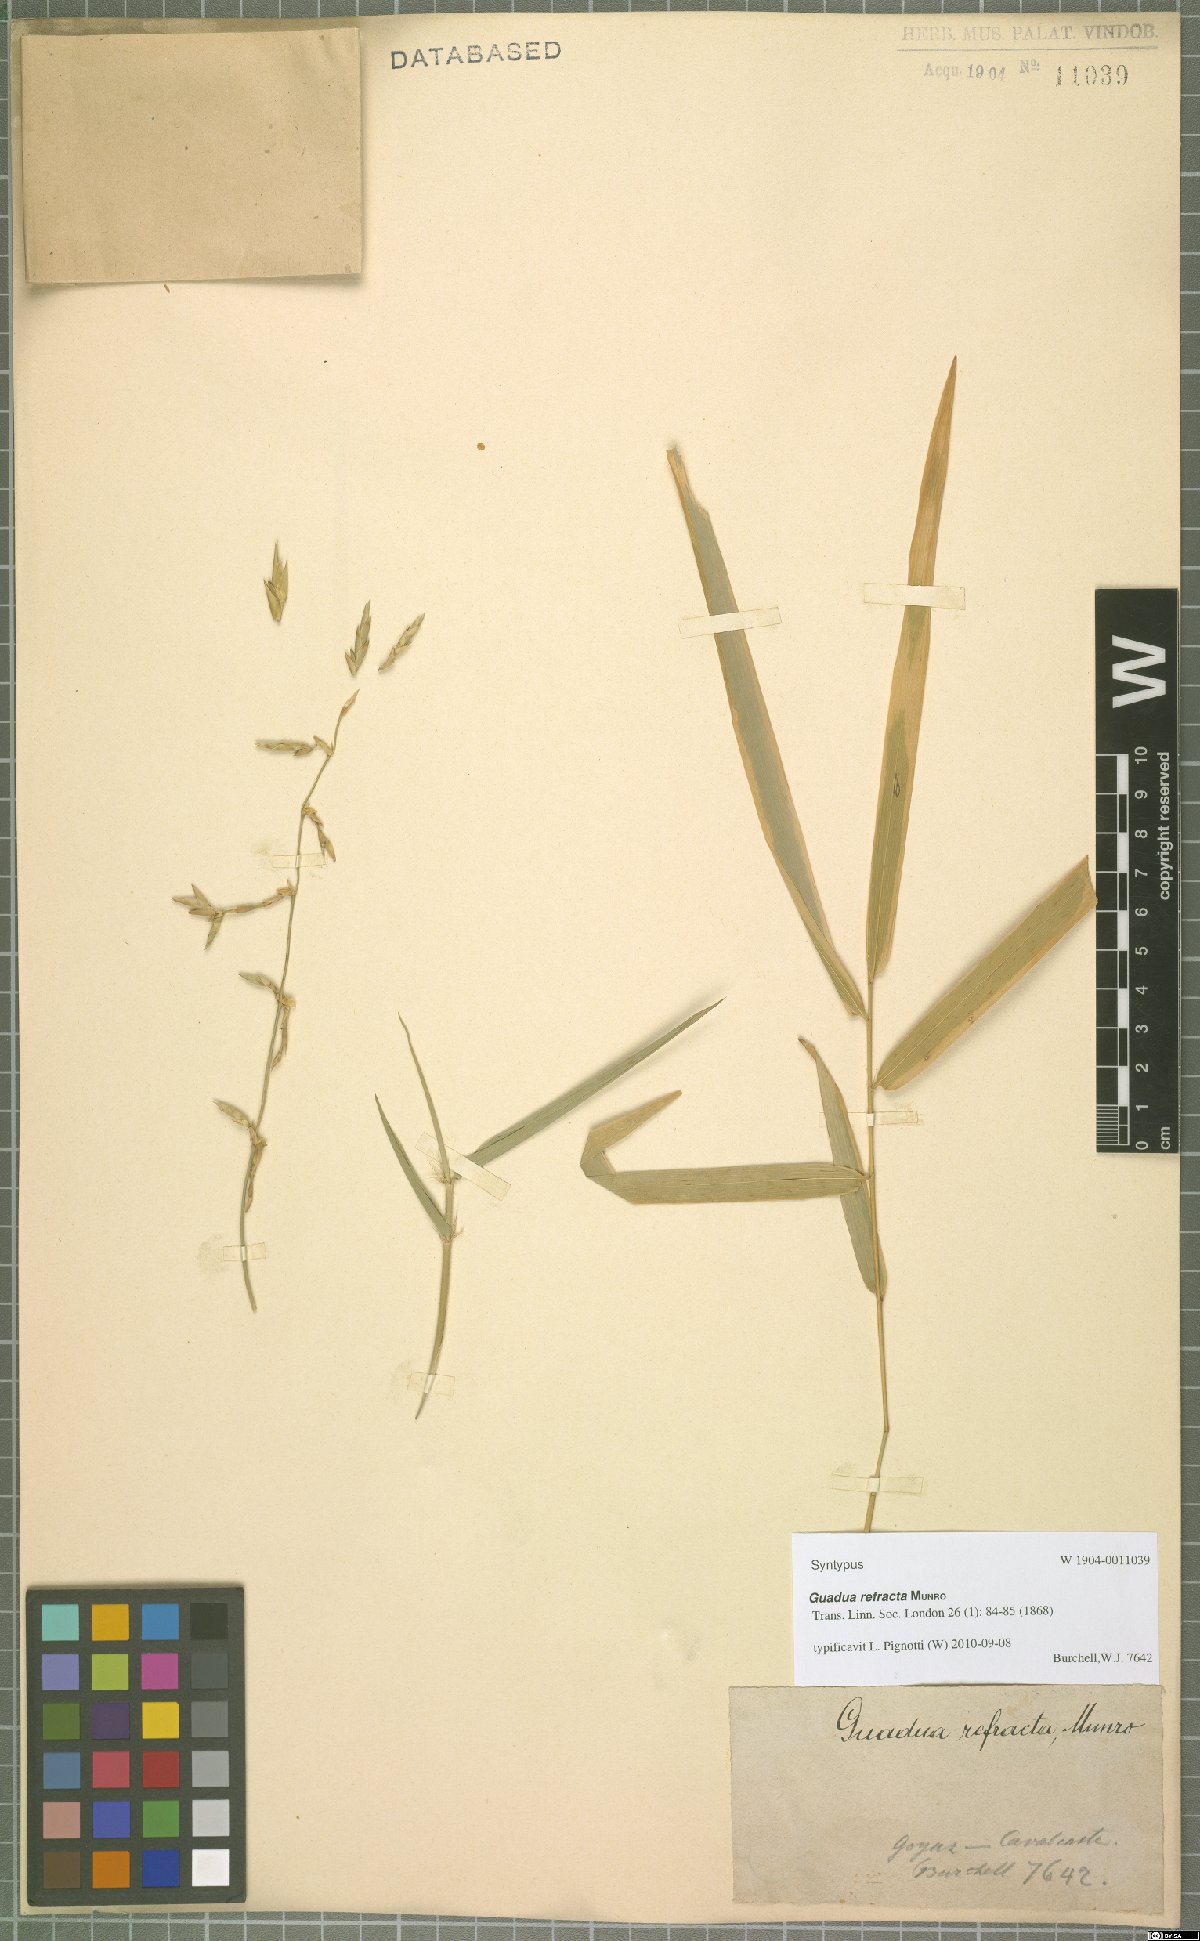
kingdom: Plantae
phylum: Tracheophyta
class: Liliopsida
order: Poales
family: Poaceae
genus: Guadua
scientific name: Guadua refracta
